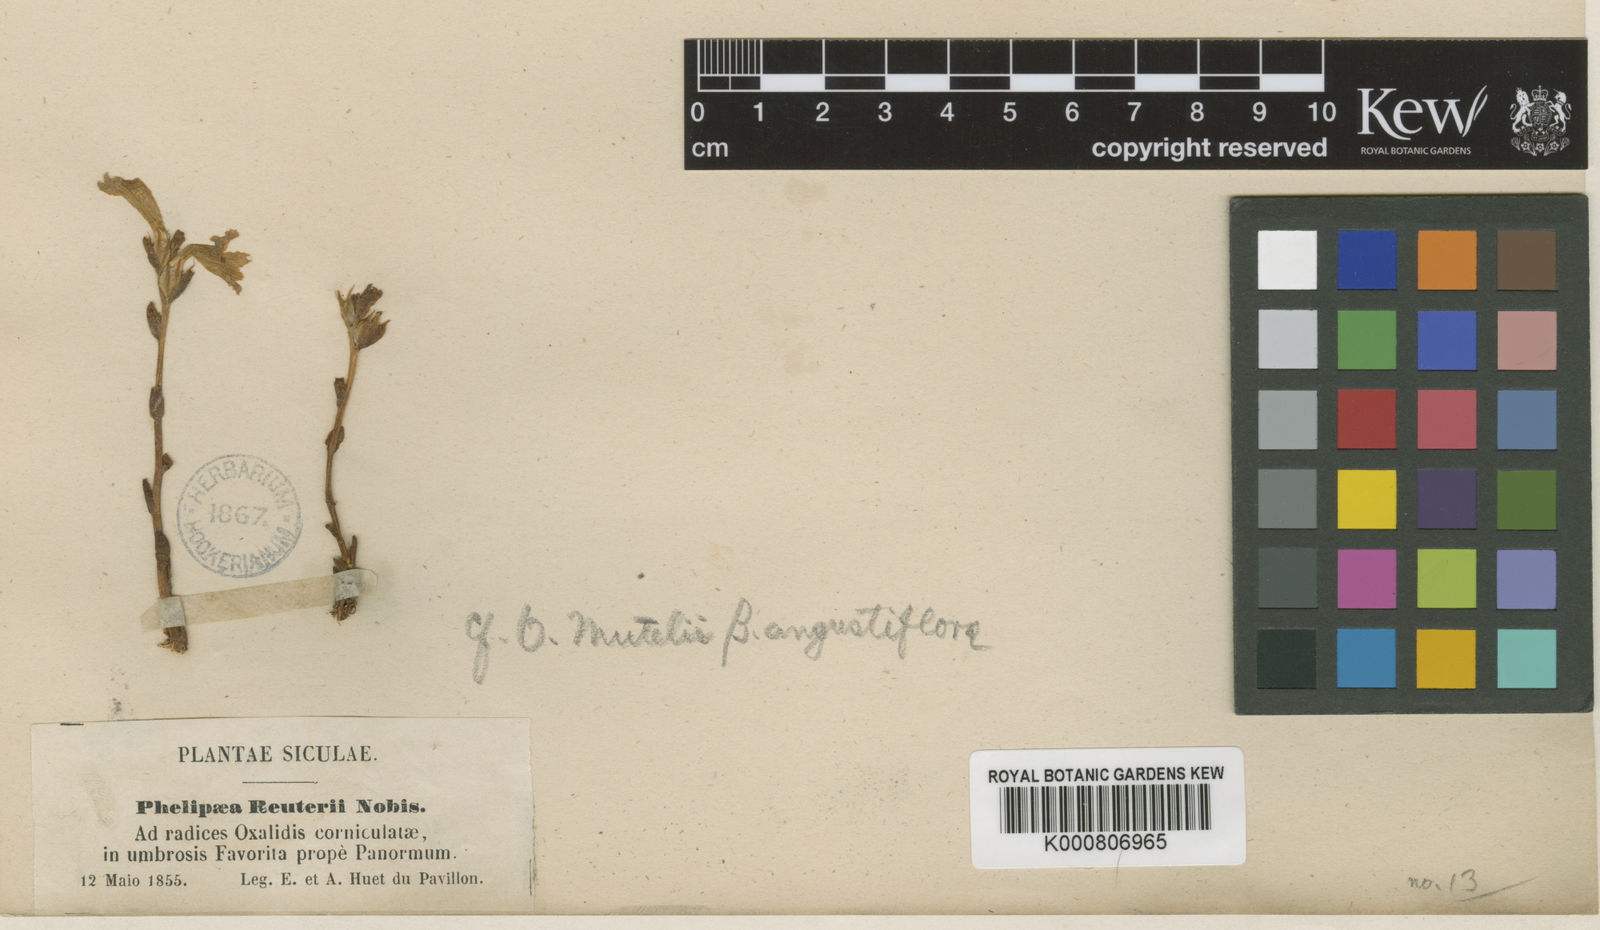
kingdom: Plantae
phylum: Tracheophyta
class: Magnoliopsida
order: Lamiales
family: Orobanchaceae
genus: Phelipanche
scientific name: Phelipanche mutelii
